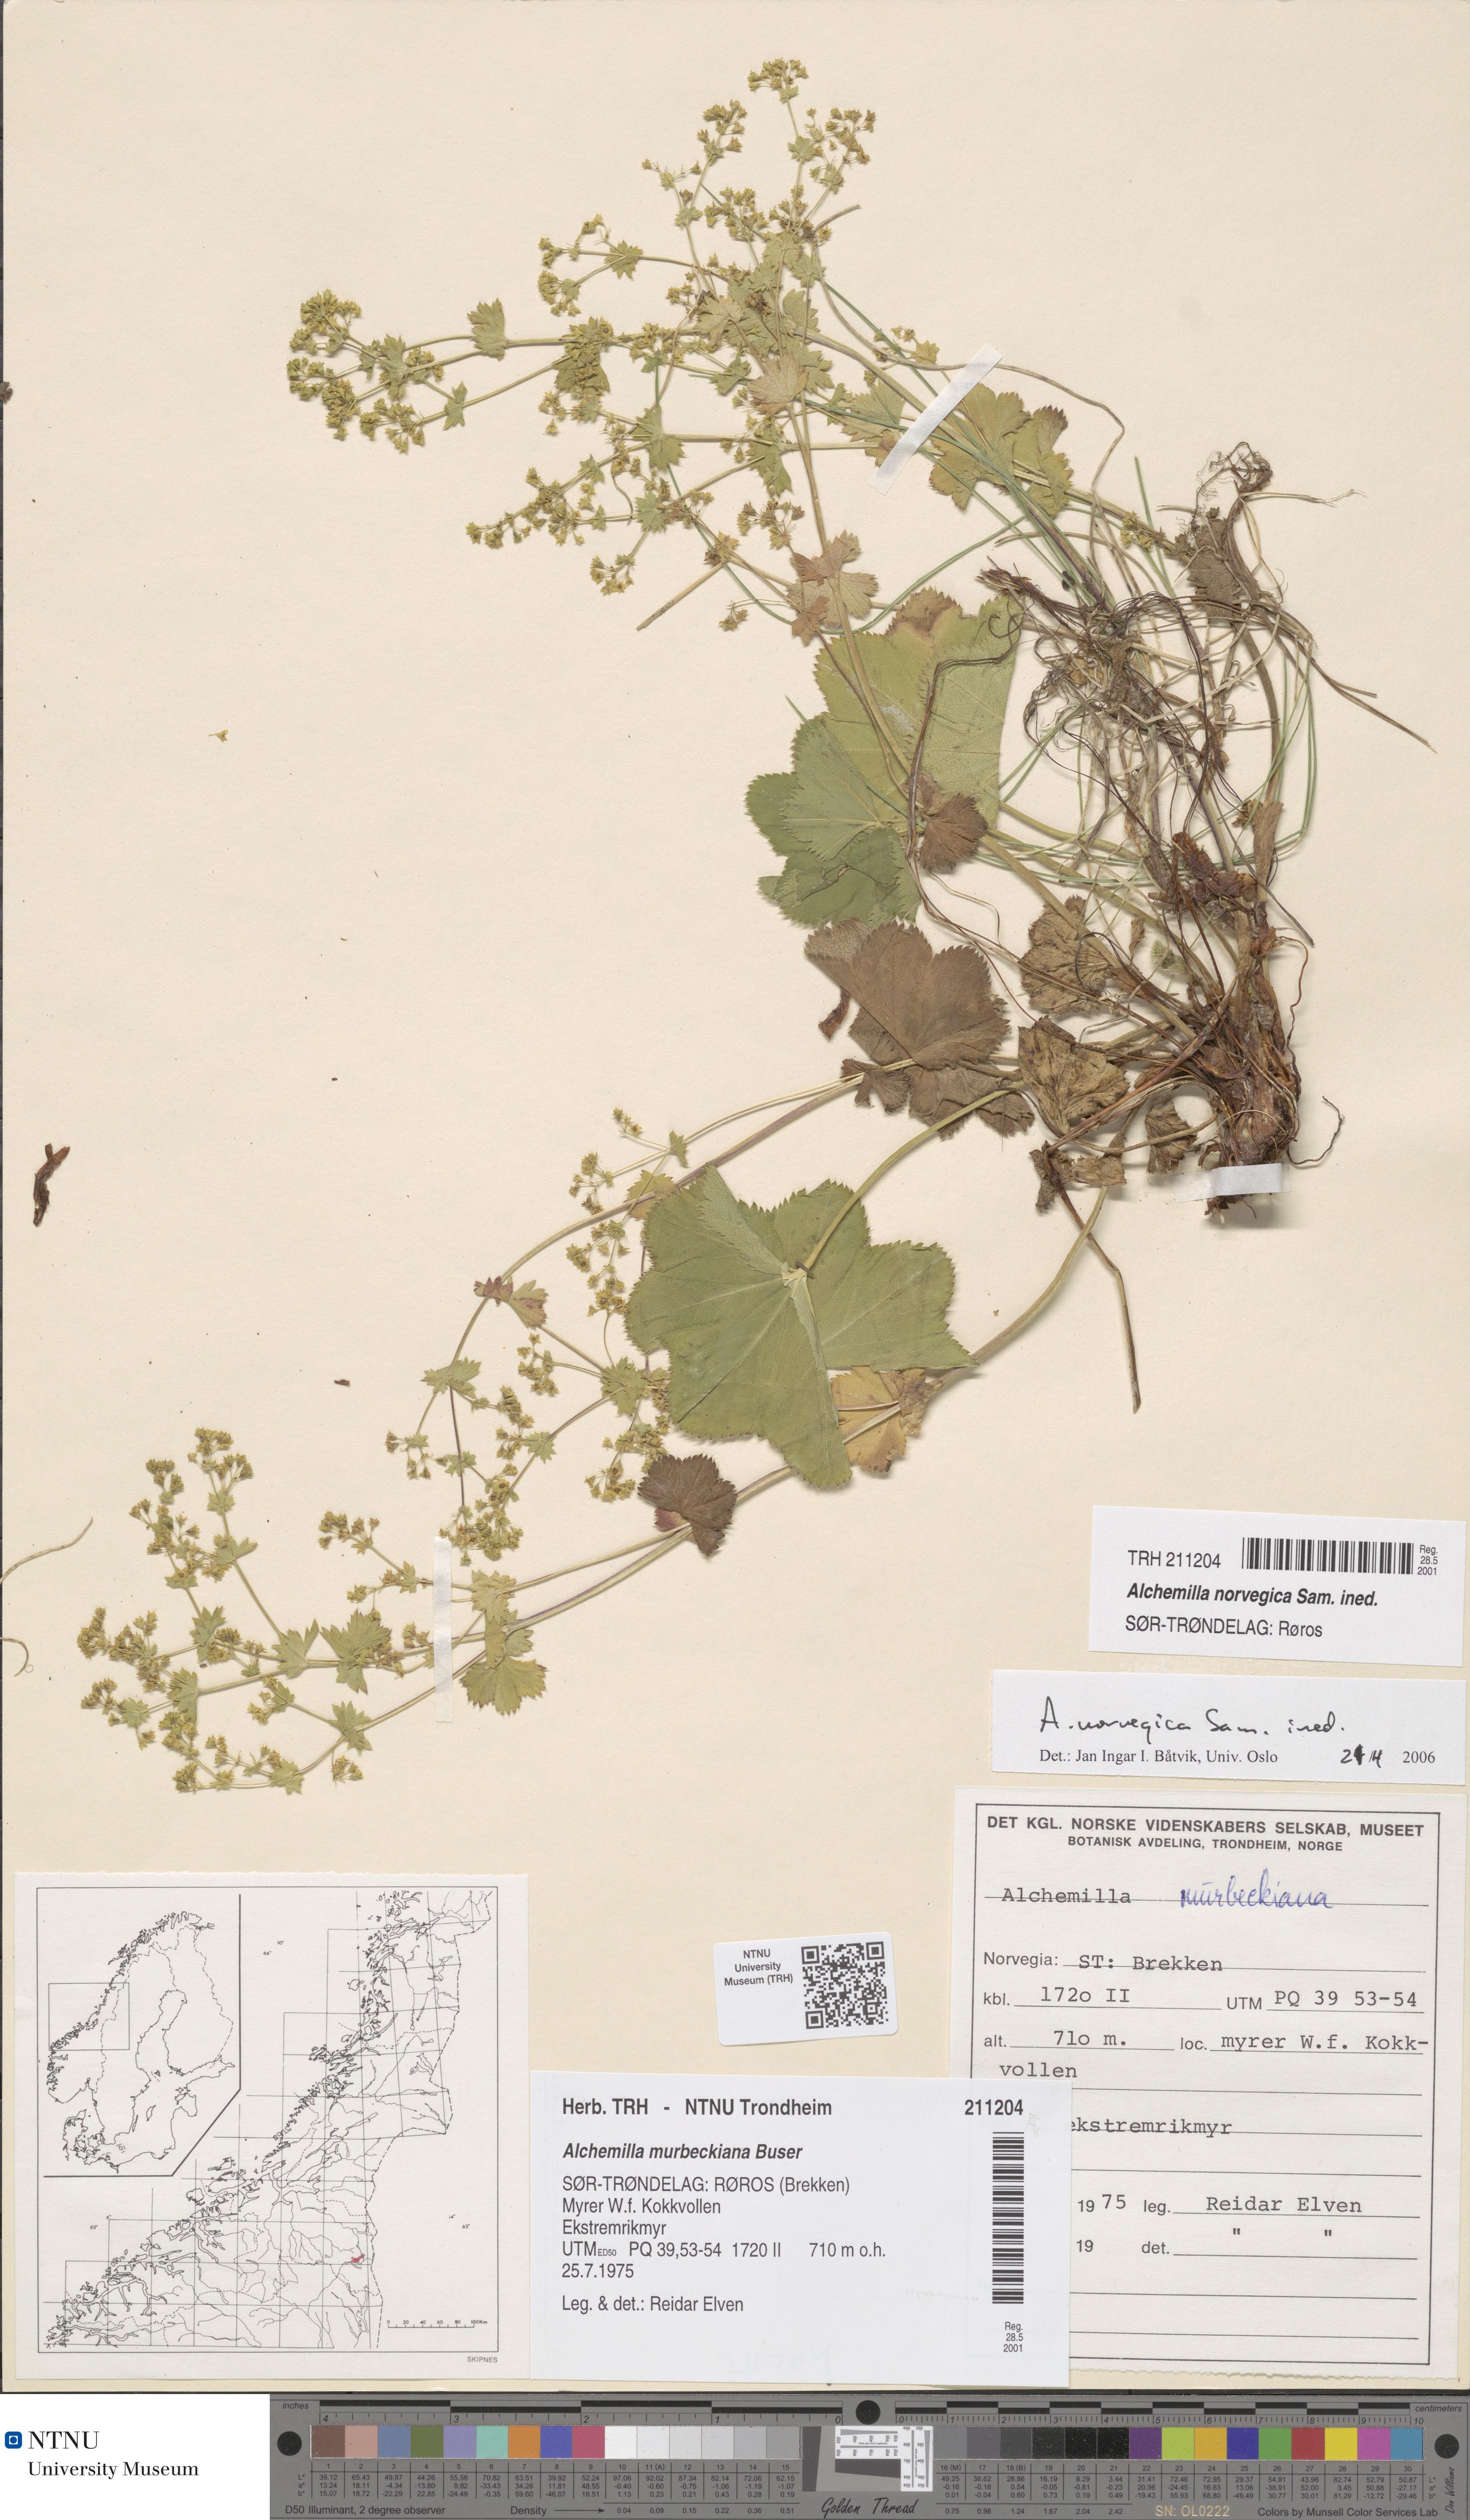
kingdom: Plantae
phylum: Tracheophyta
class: Magnoliopsida
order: Rosales
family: Rosaceae
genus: Alchemilla
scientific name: Alchemilla norvegica
